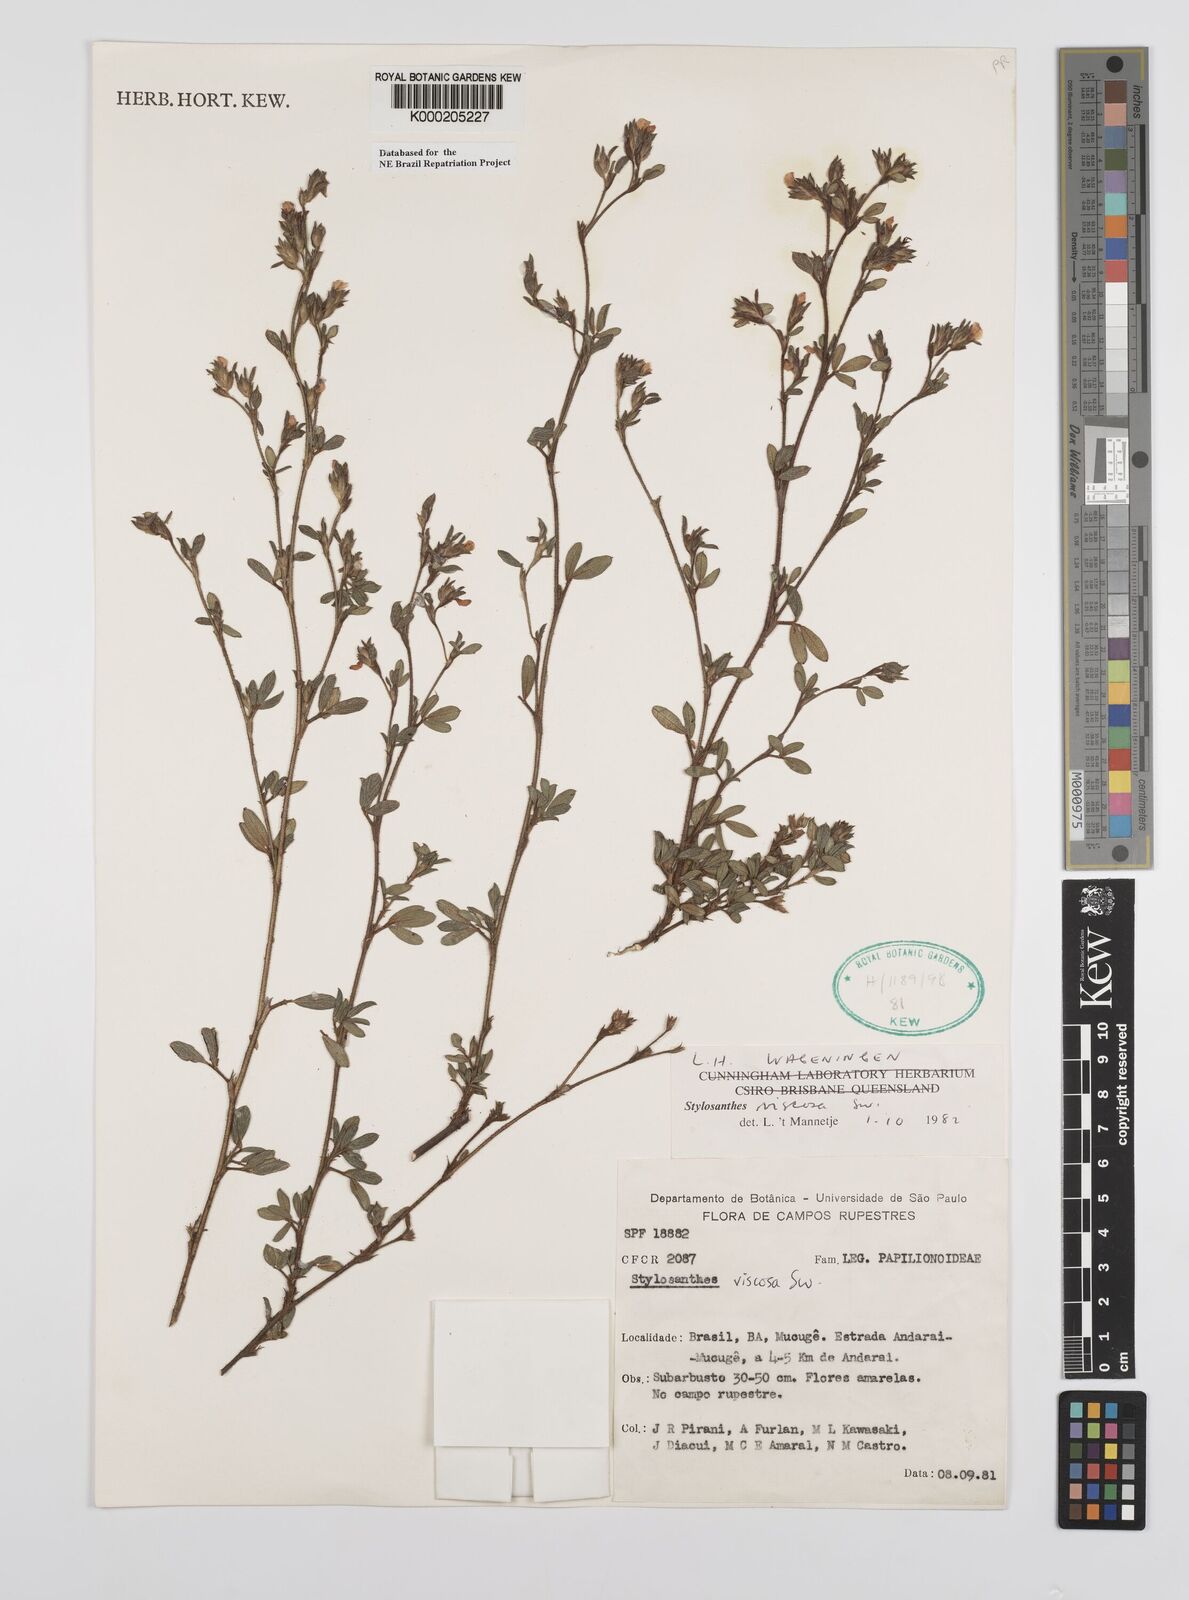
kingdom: Plantae
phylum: Tracheophyta
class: Magnoliopsida
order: Fabales
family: Fabaceae
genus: Stylosanthes
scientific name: Stylosanthes viscosa
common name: Viscid pencil-flower
